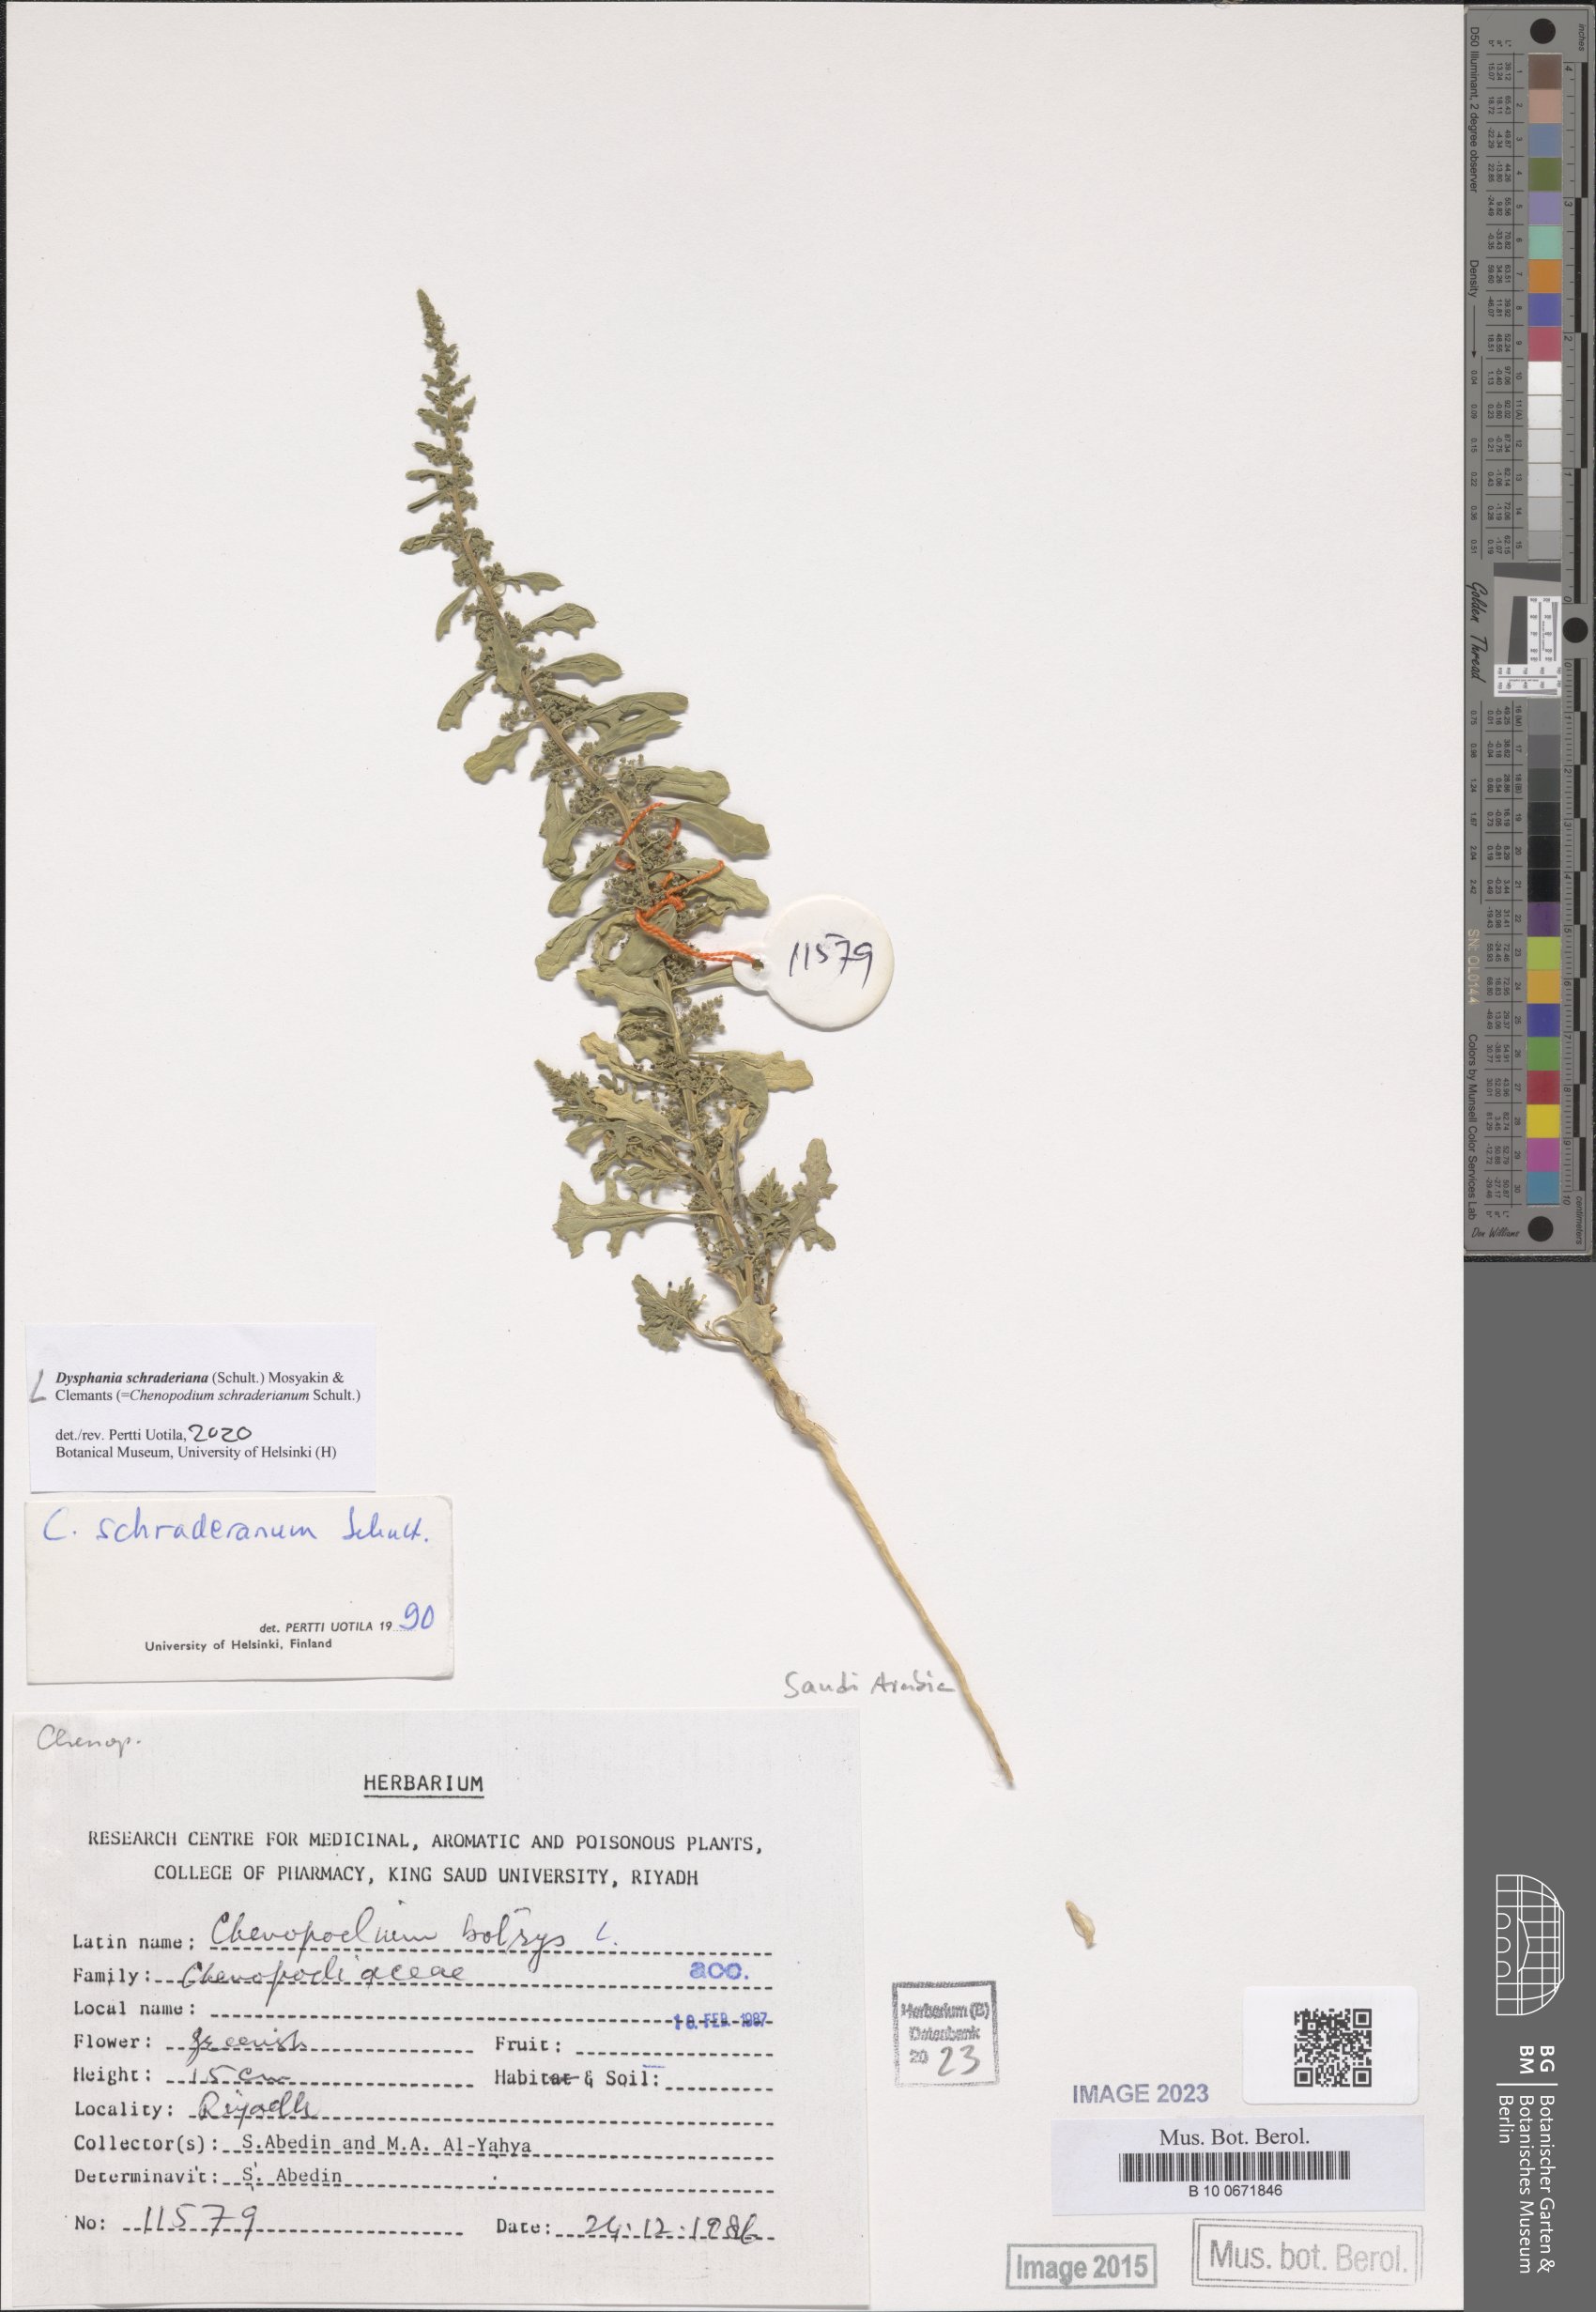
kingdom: Plantae
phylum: Tracheophyta
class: Magnoliopsida
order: Caryophyllales
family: Amaranthaceae
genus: Dysphania
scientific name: Dysphania schraderiana
